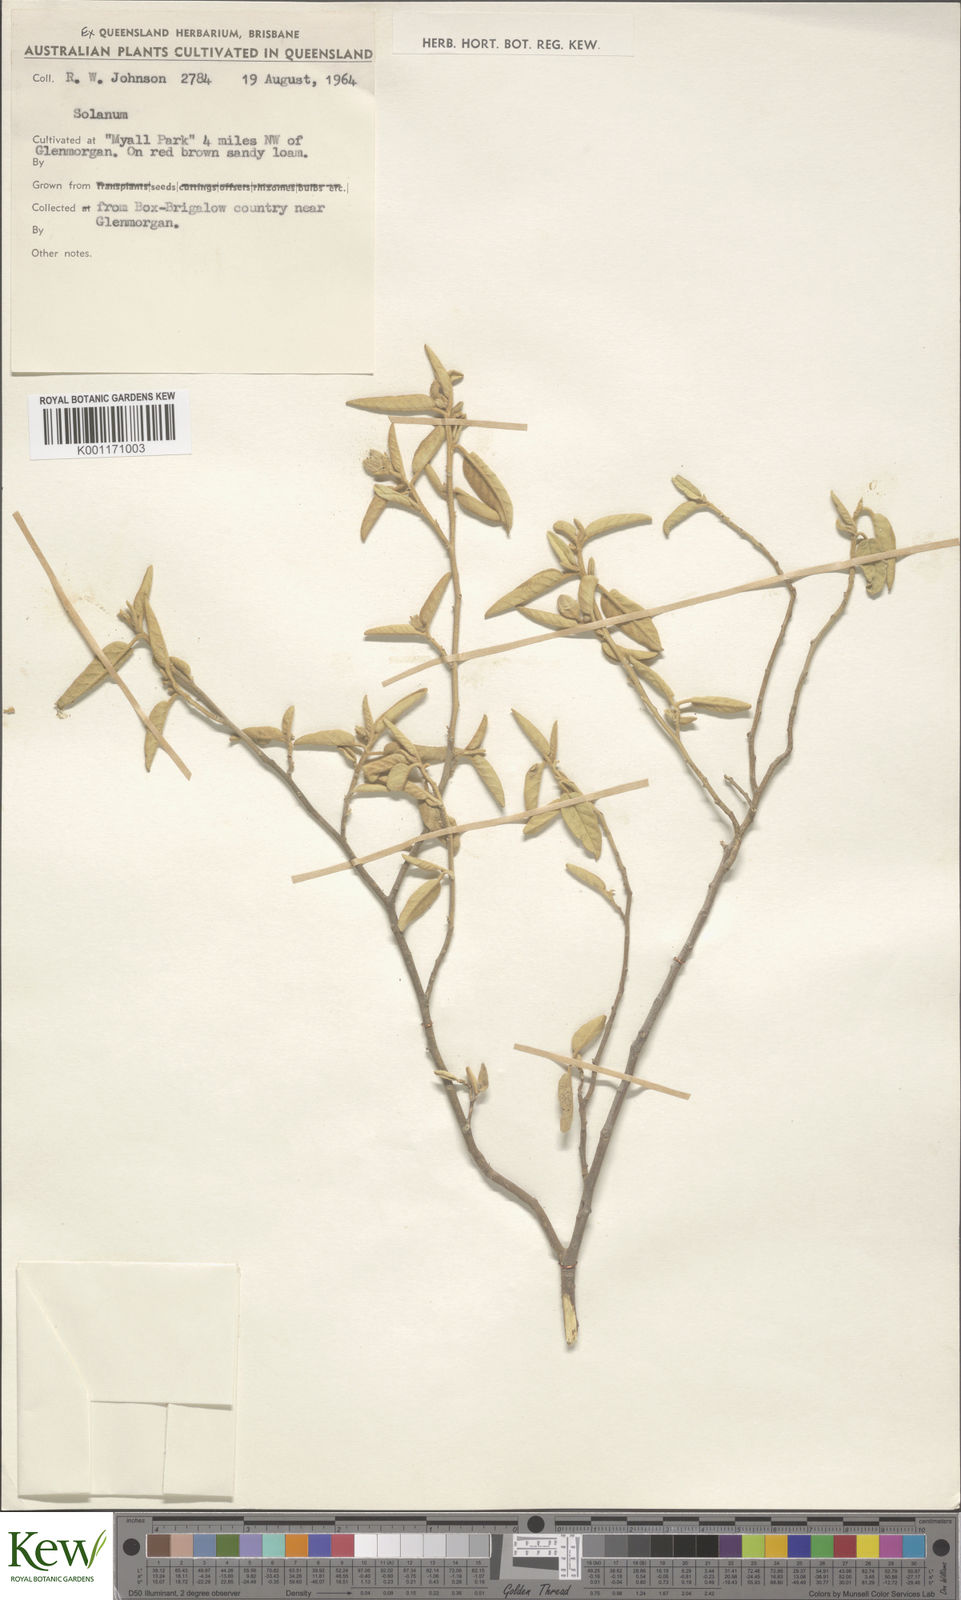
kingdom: Plantae
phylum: Tracheophyta
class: Magnoliopsida
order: Solanales
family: Solanaceae
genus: Solanum
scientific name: Solanum
